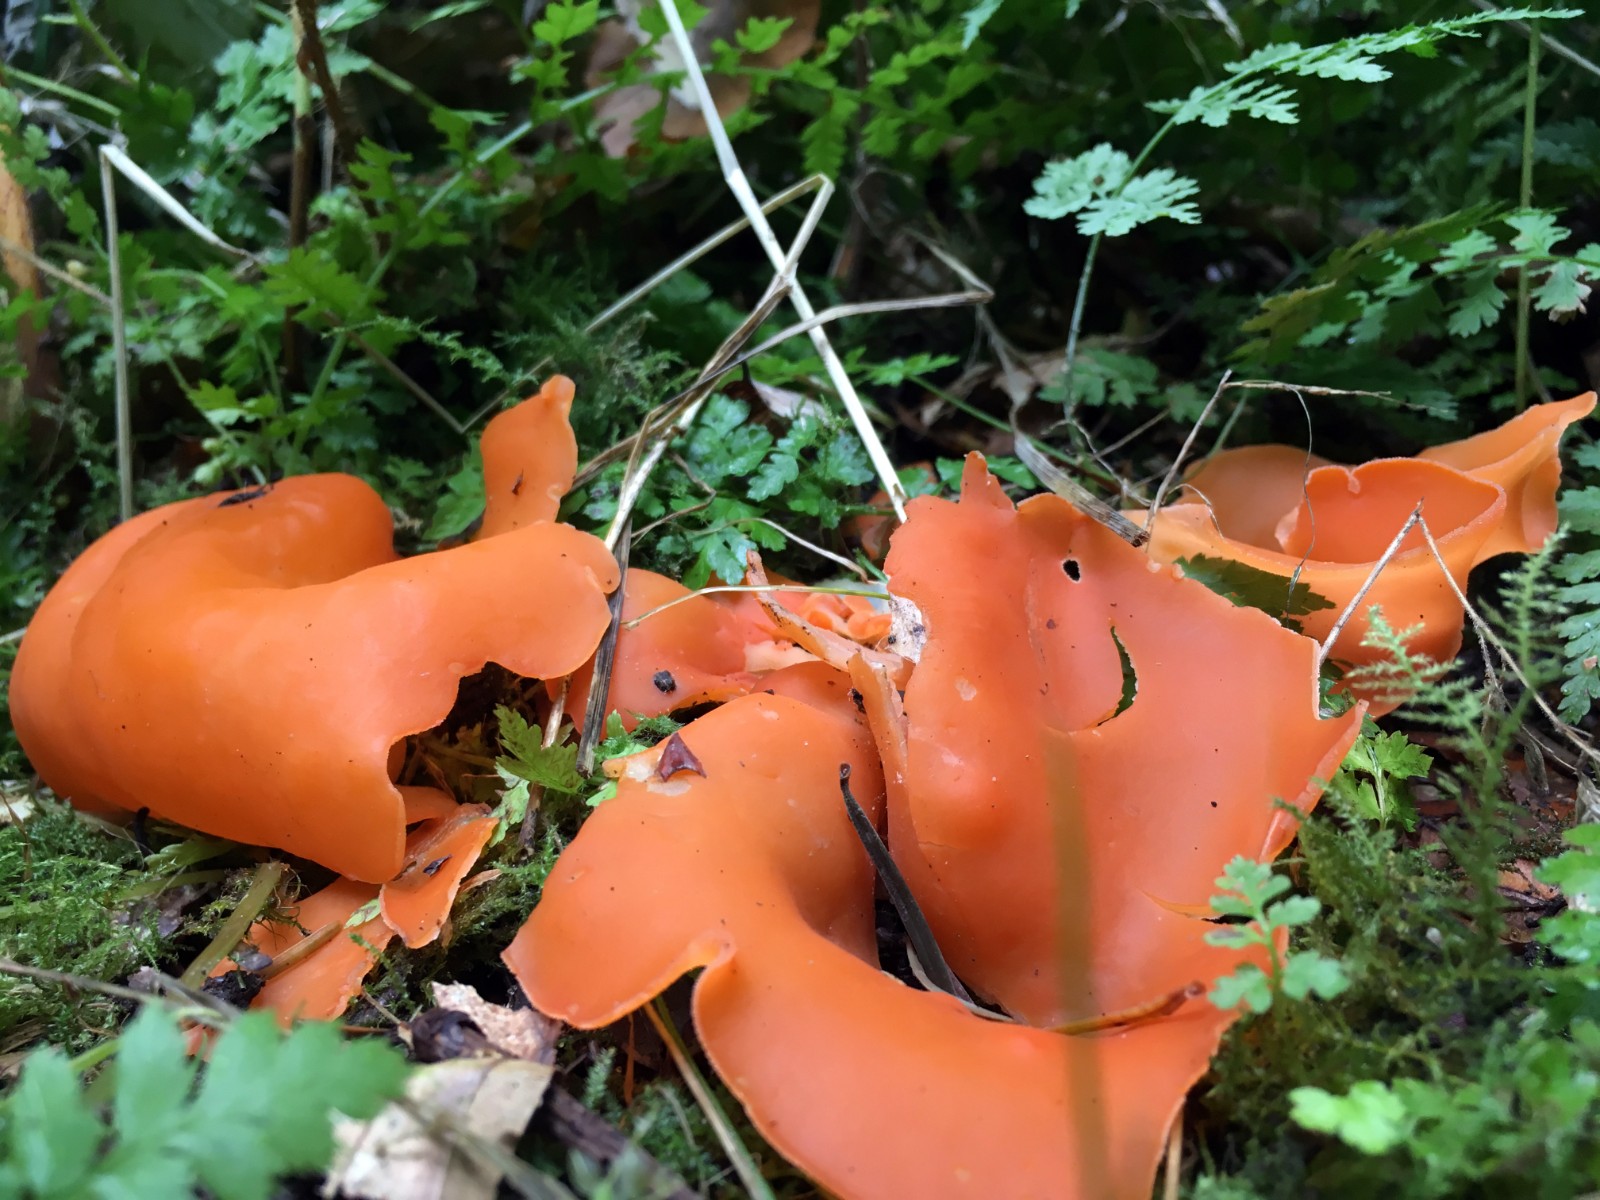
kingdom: Fungi
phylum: Ascomycota
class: Pezizomycetes
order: Pezizales
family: Pyronemataceae
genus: Aleuria
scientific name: Aleuria aurantia
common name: almindelig orangebæger
